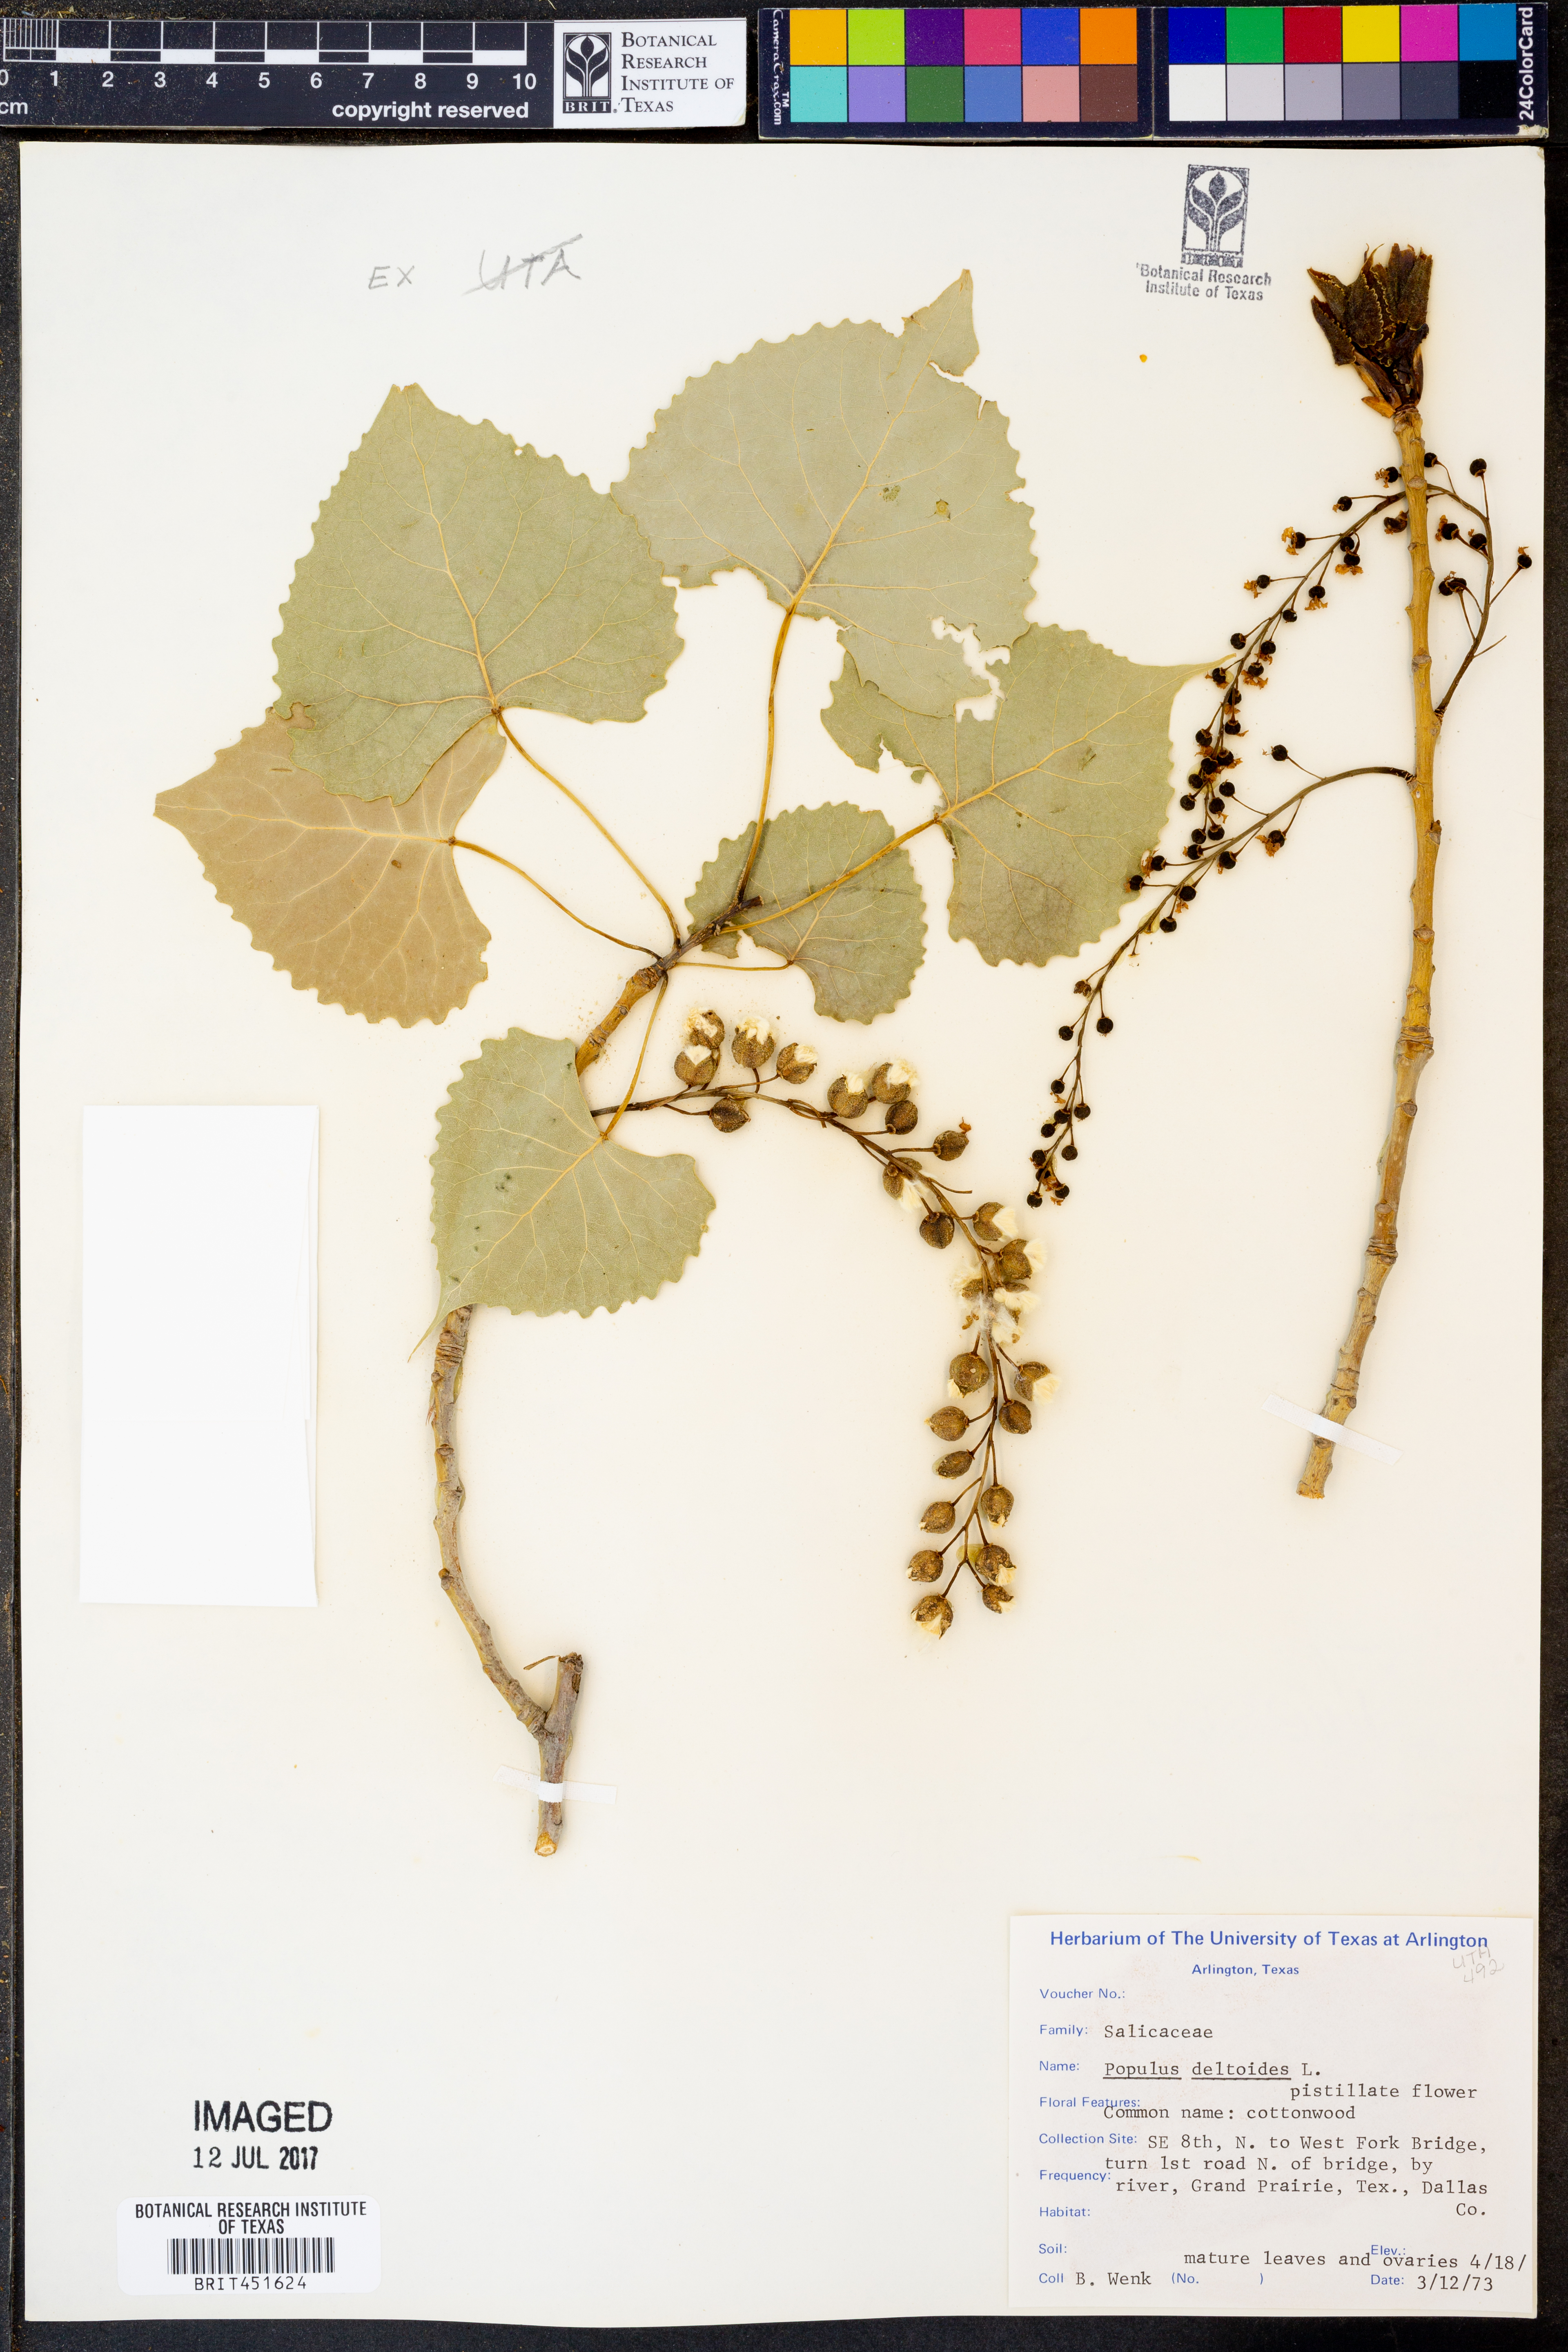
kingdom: Plantae
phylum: Tracheophyta
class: Magnoliopsida
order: Malpighiales
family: Salicaceae
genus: Populus
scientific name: Populus deltoides
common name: Eastern cottonwood
